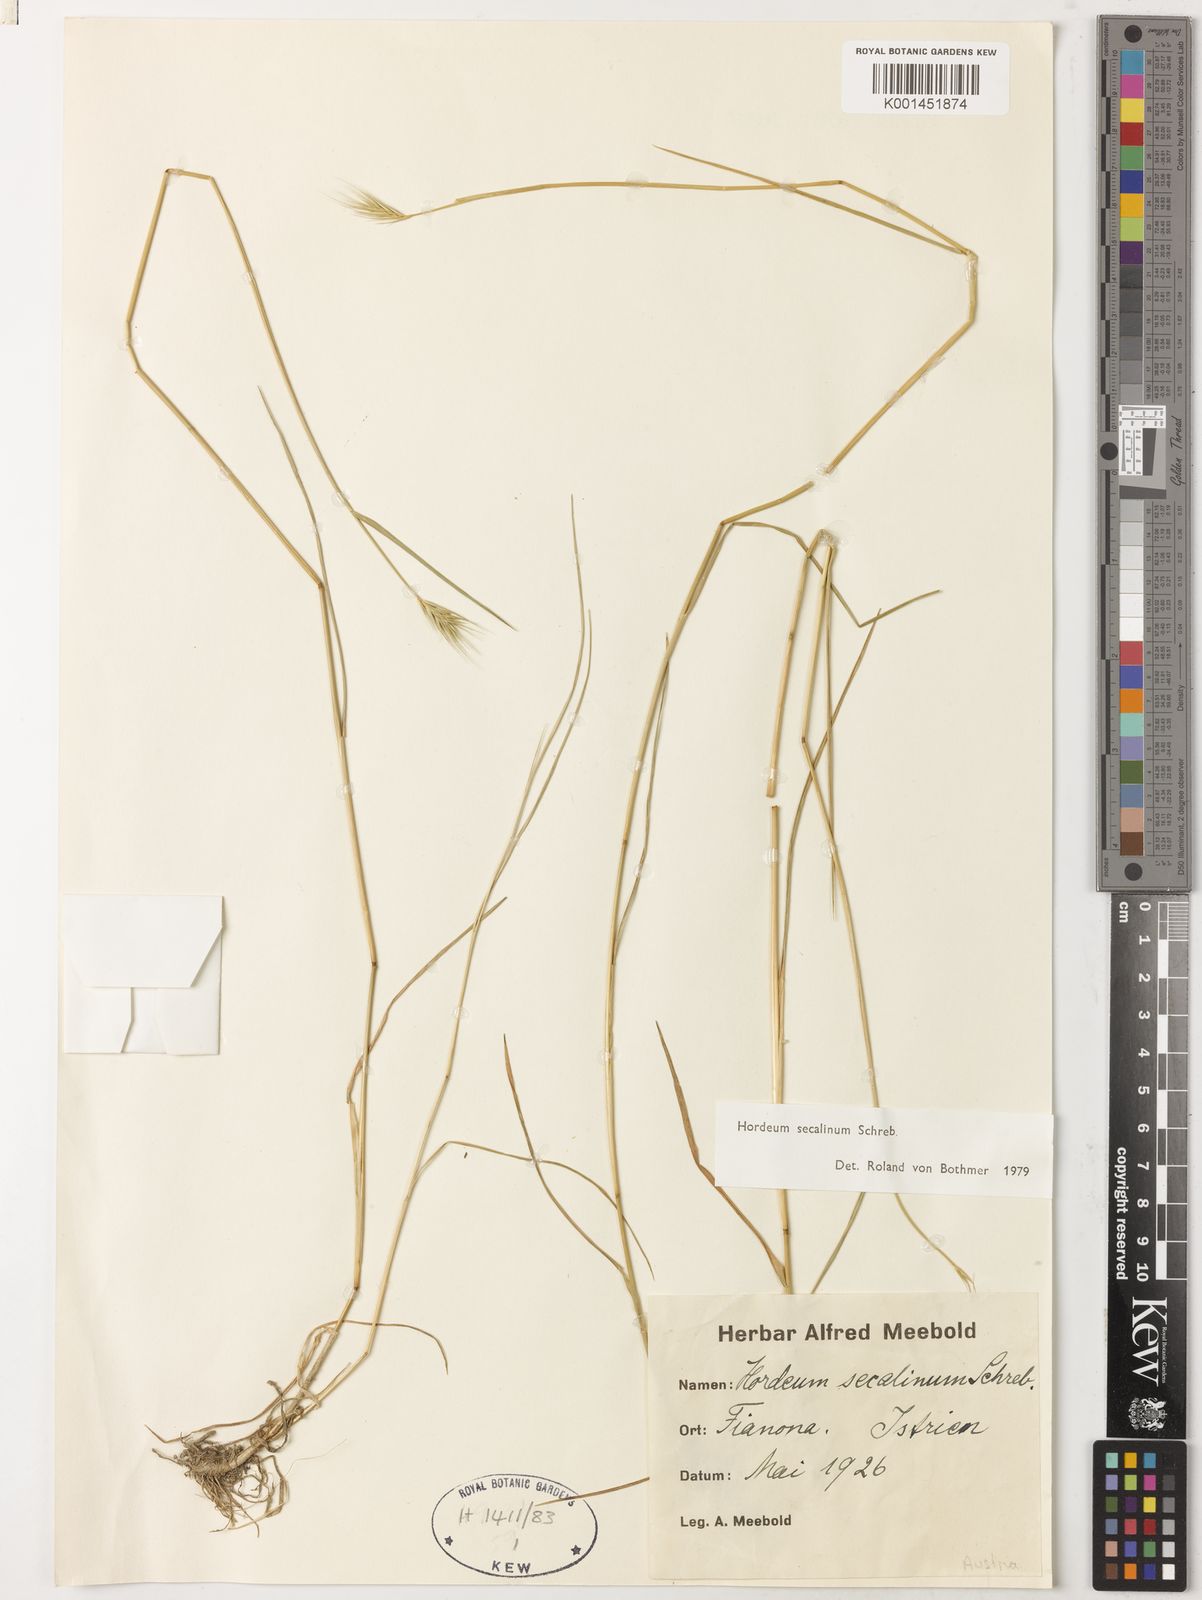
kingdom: Plantae
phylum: Tracheophyta
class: Liliopsida
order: Poales
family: Poaceae
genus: Hordeum
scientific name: Hordeum secalinum
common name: Meadow barley
